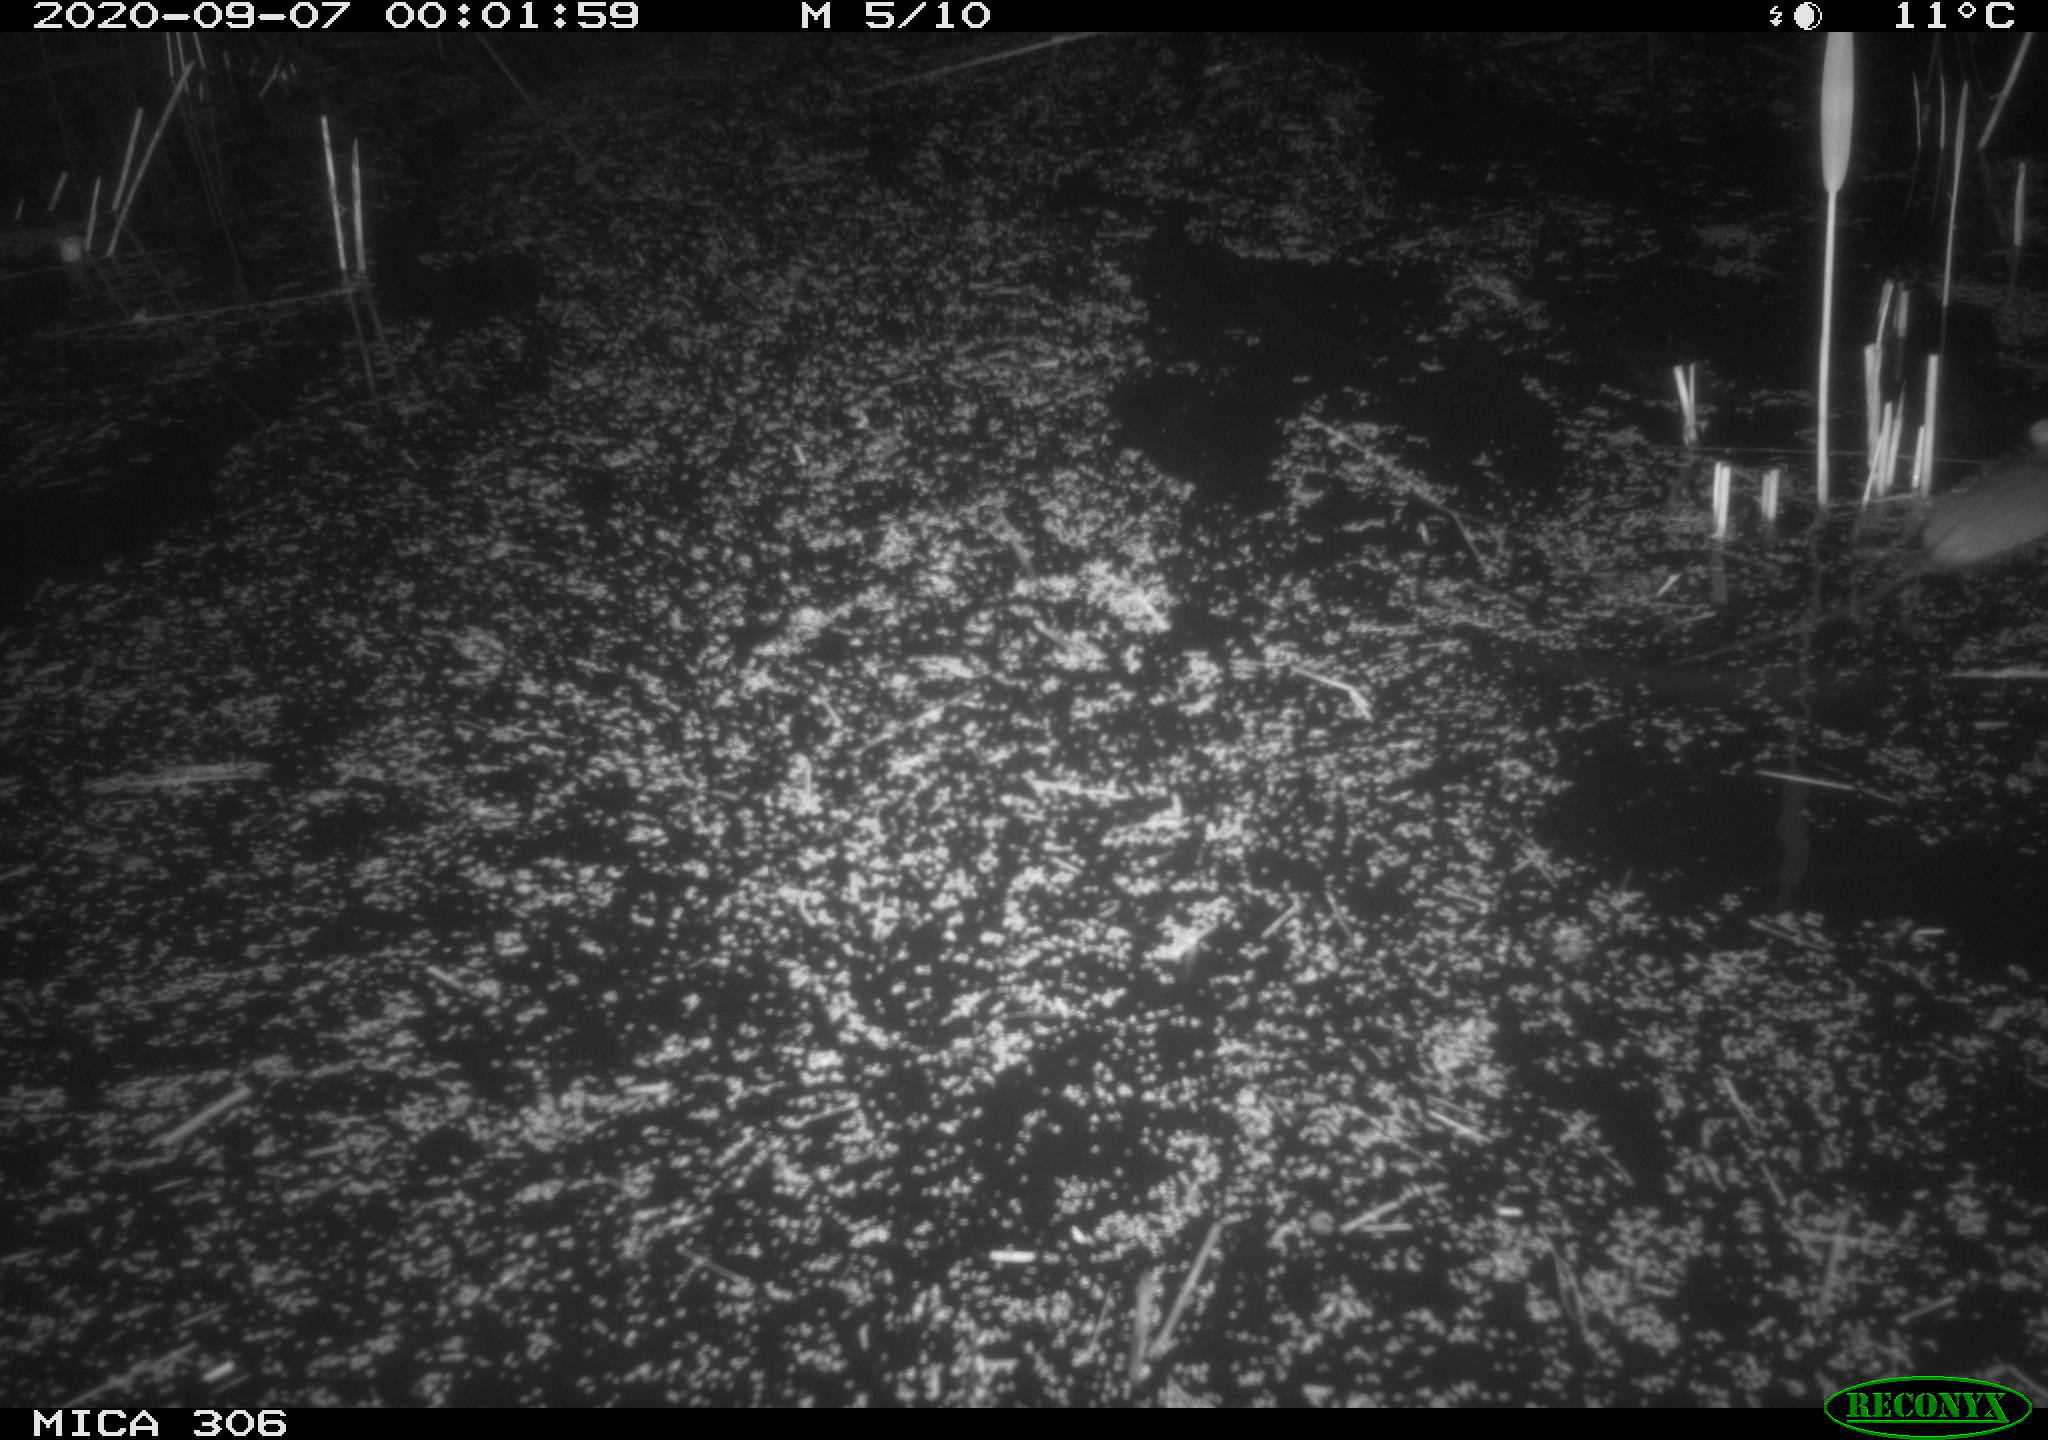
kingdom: Animalia
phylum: Chordata
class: Mammalia
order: Rodentia
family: Muridae
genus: Rattus
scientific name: Rattus norvegicus
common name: Brown rat
